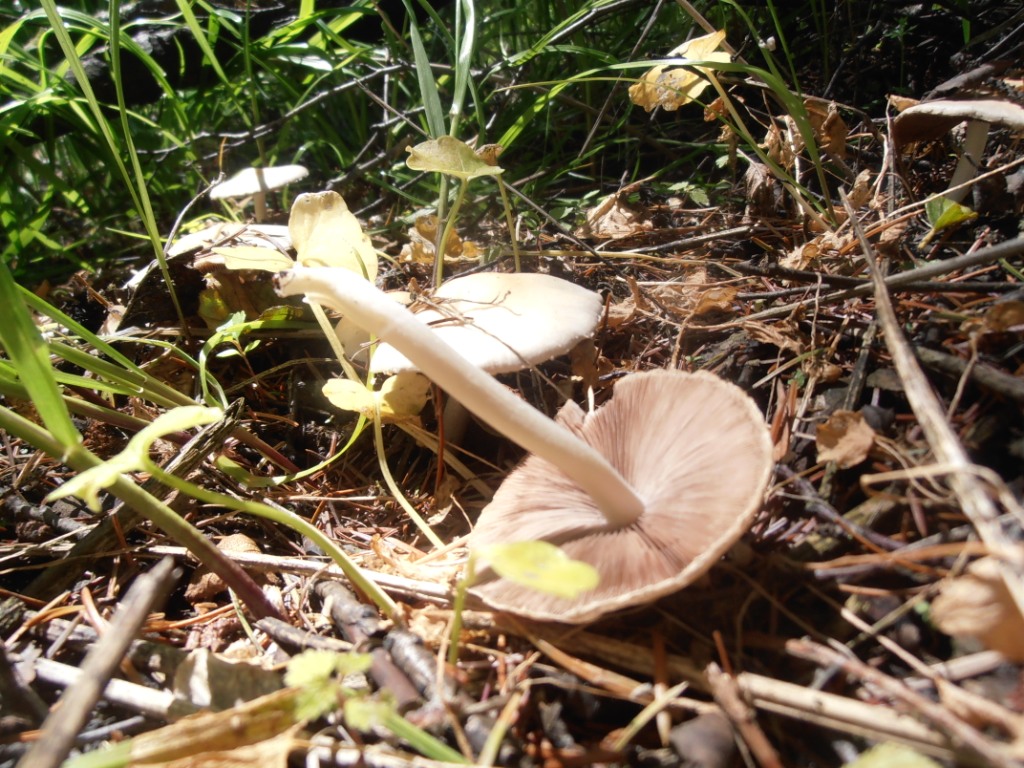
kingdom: Fungi
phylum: Basidiomycota
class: Agaricomycetes
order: Agaricales
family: Psathyrellaceae
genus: Candolleomyces
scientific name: Candolleomyces candolleanus
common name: Candolles mørkhat
